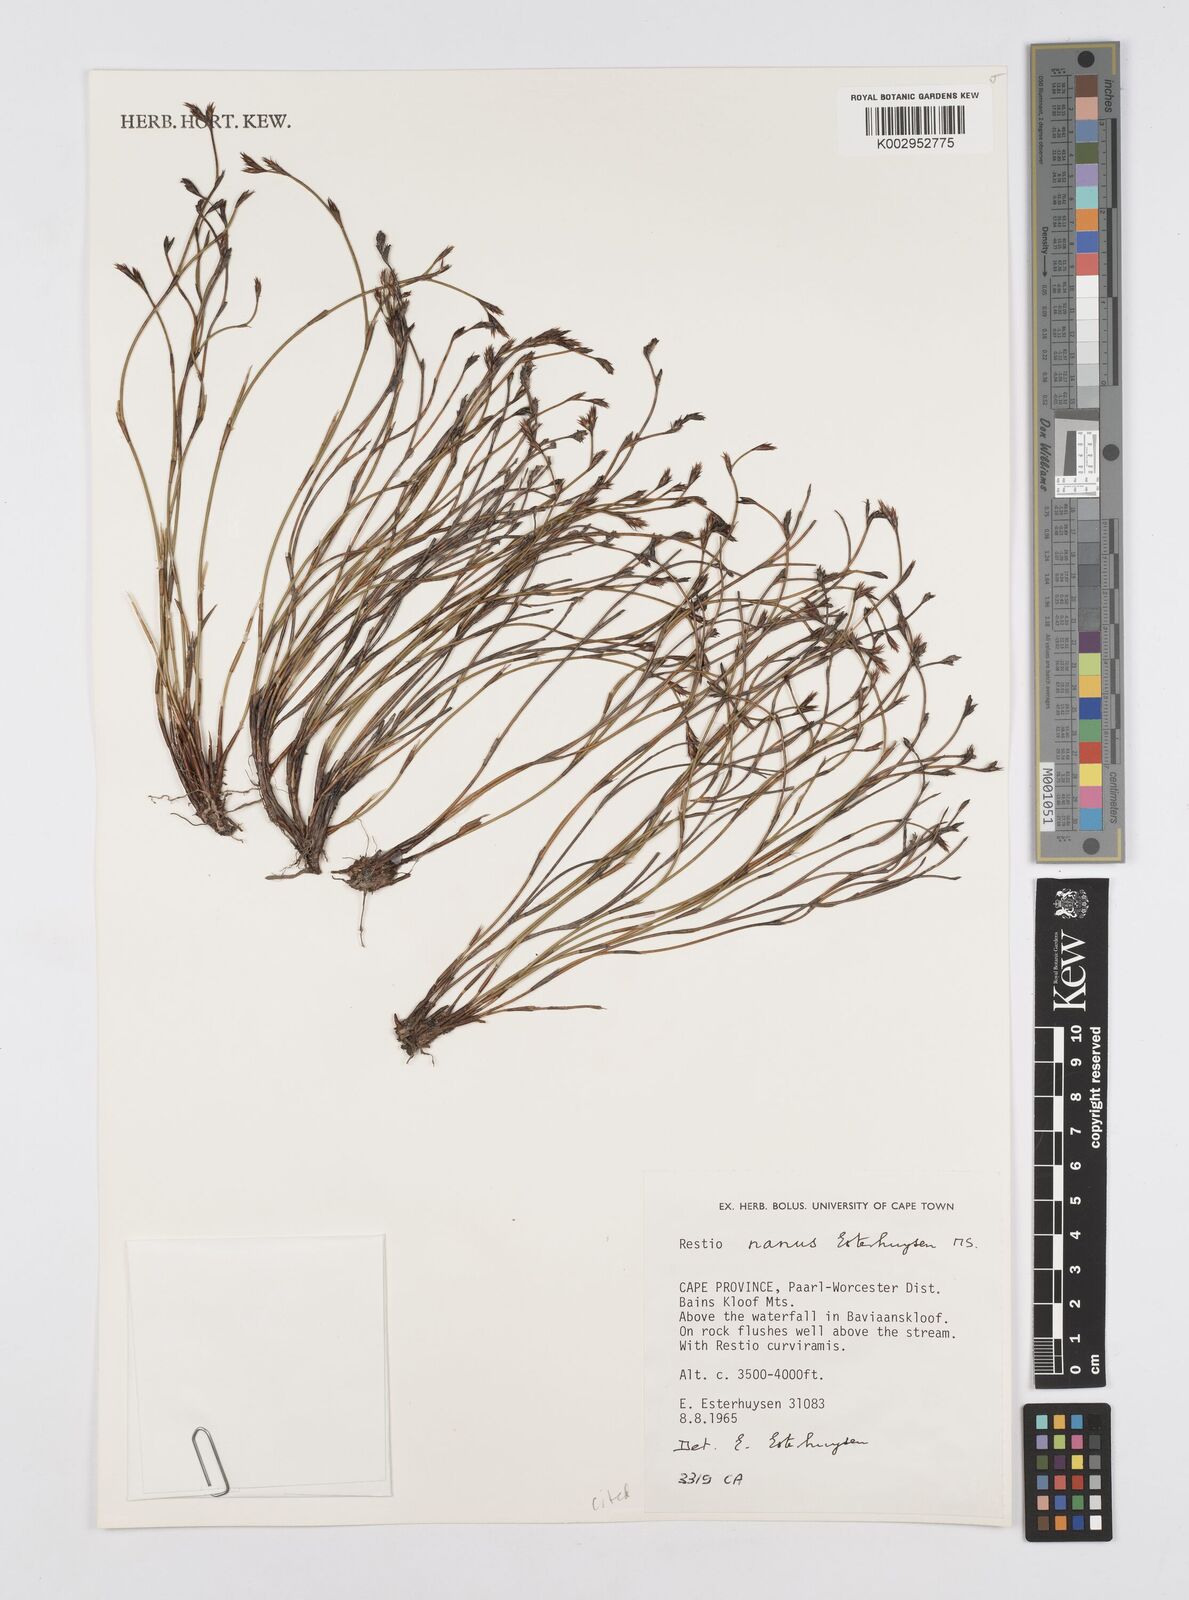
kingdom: Plantae
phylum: Tracheophyta
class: Liliopsida
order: Poales
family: Restionaceae
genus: Restio
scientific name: Restio nanus
